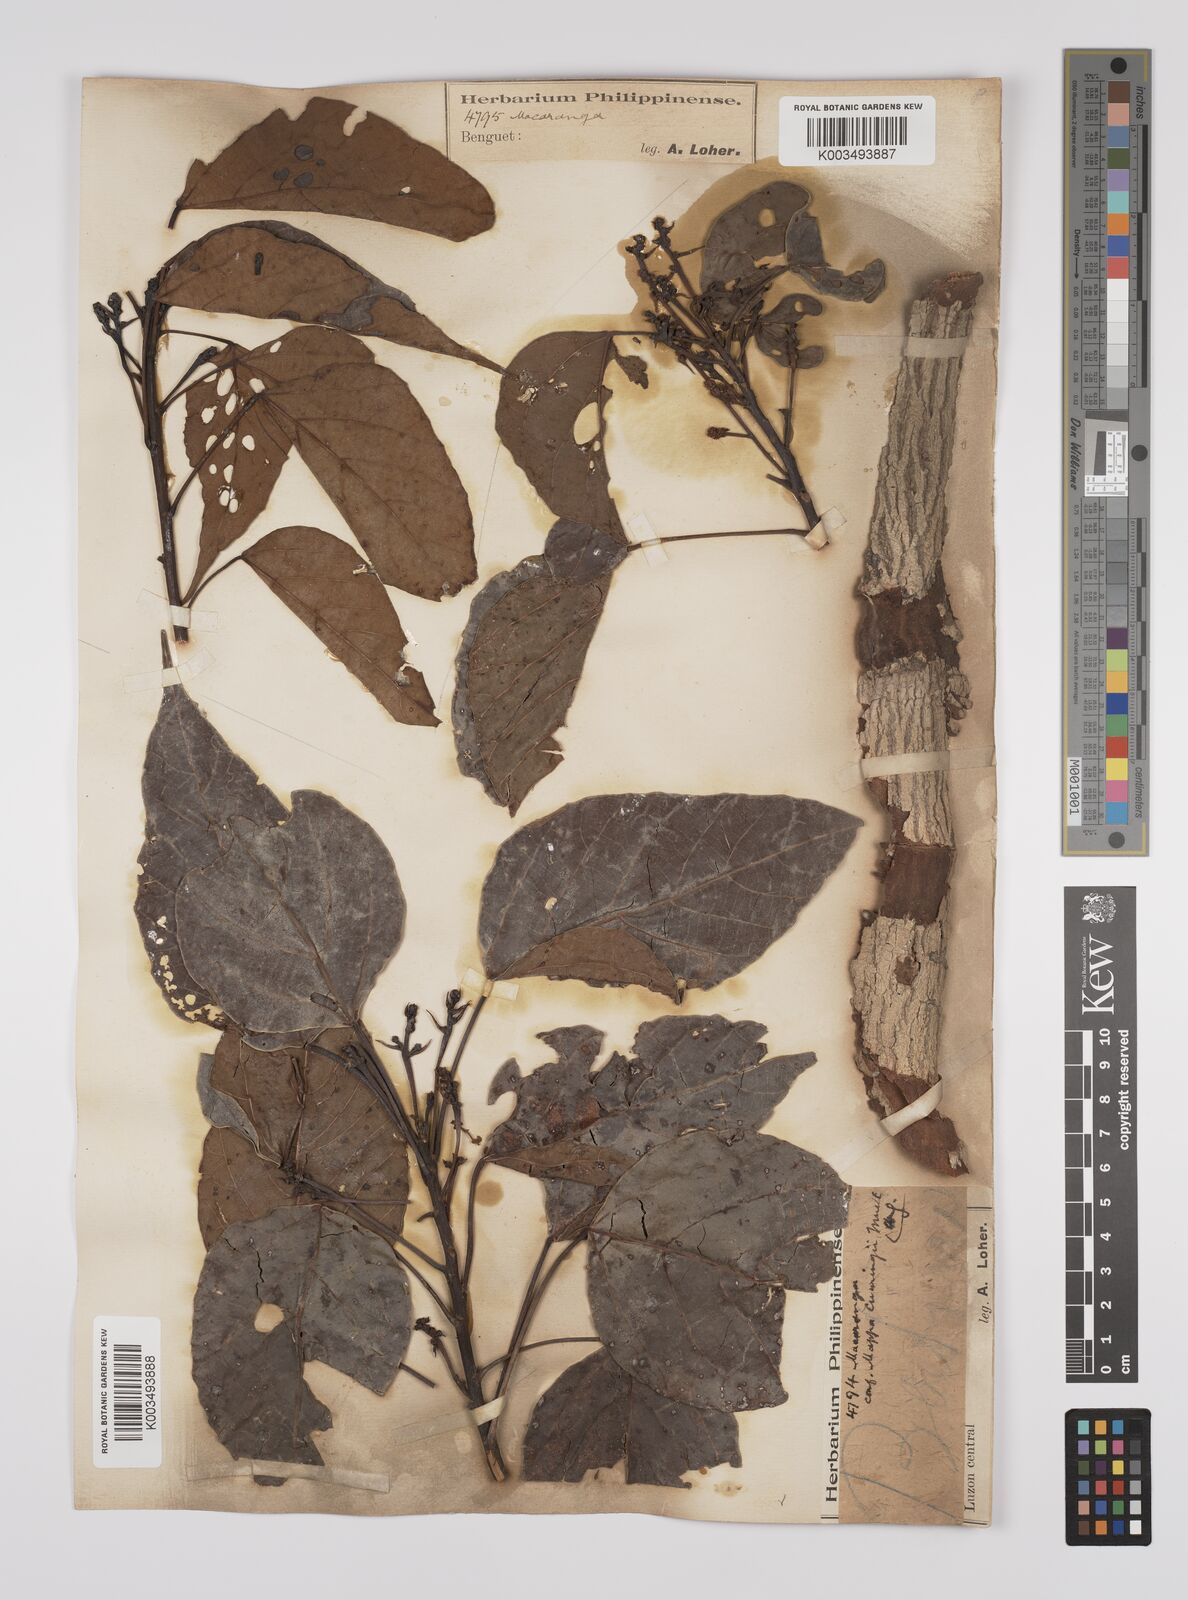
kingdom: Plantae
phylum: Tracheophyta
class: Magnoliopsida
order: Malpighiales
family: Euphorbiaceae
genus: Macaranga
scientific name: Macaranga loheri
